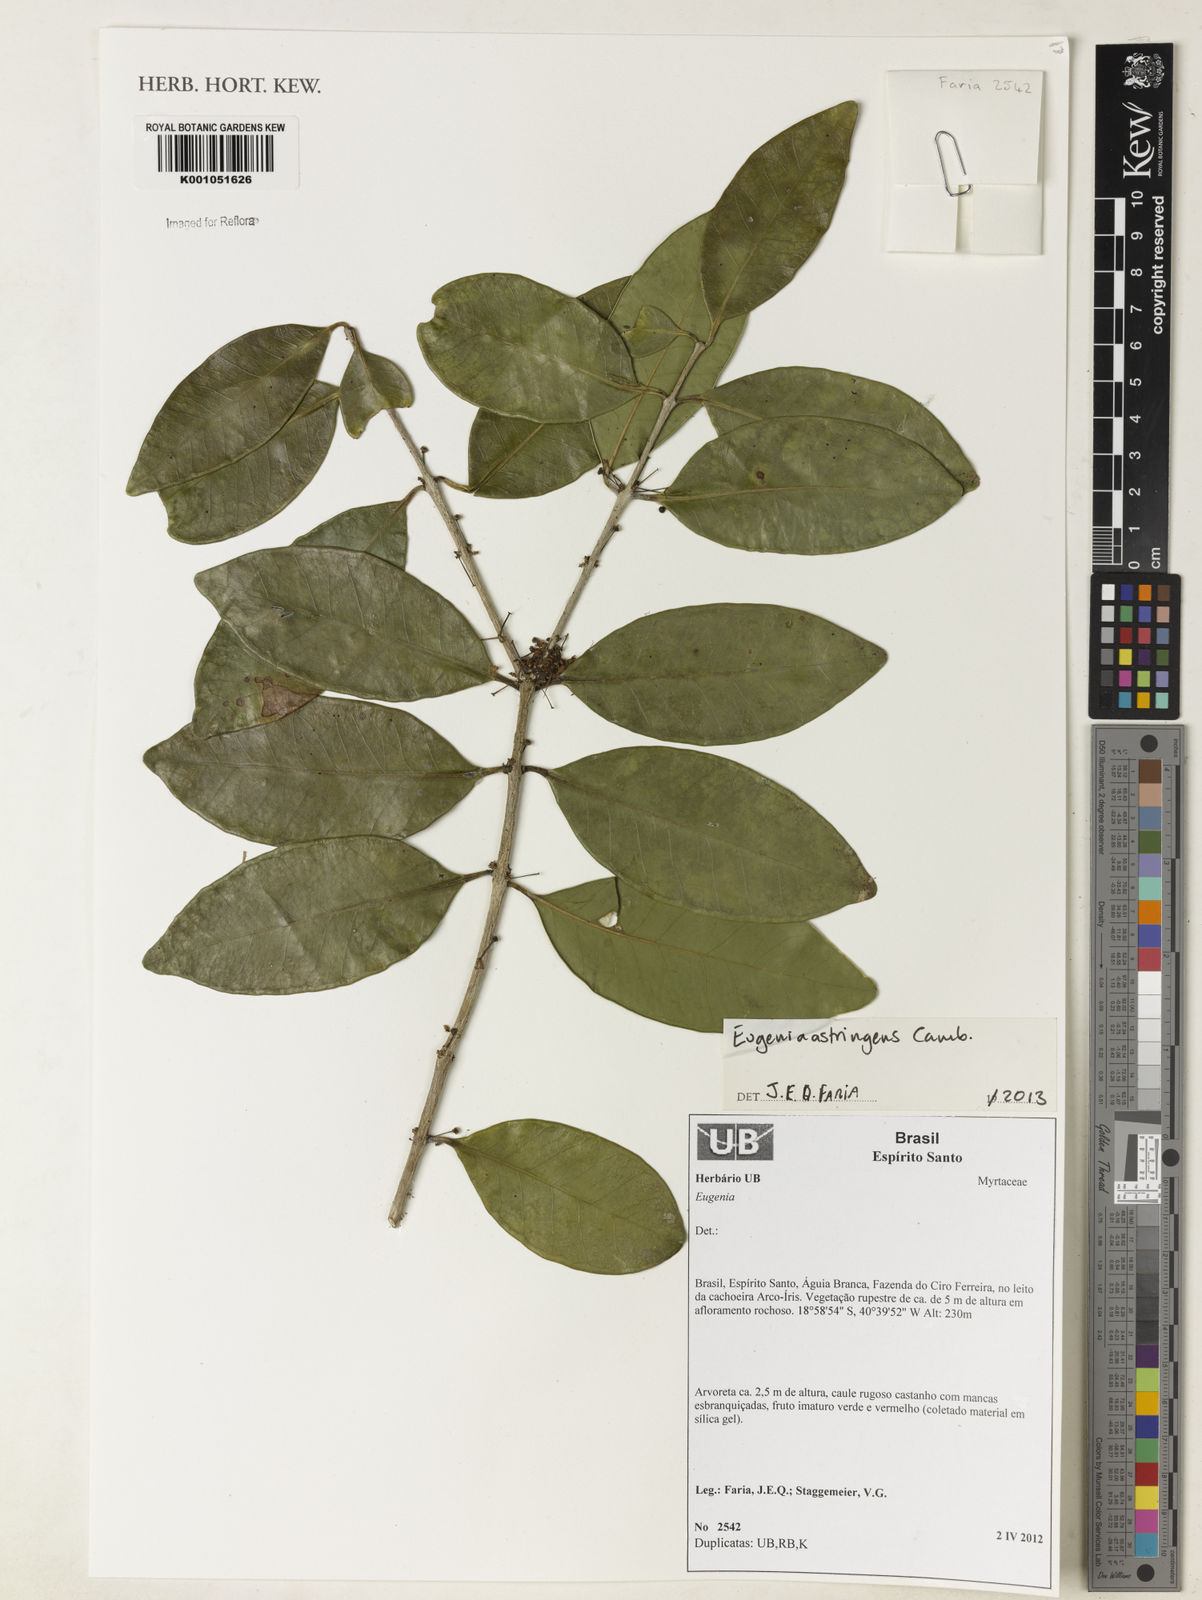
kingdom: Plantae
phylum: Tracheophyta
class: Magnoliopsida
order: Myrtales
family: Myrtaceae
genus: Eugenia
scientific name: Eugenia astringens
